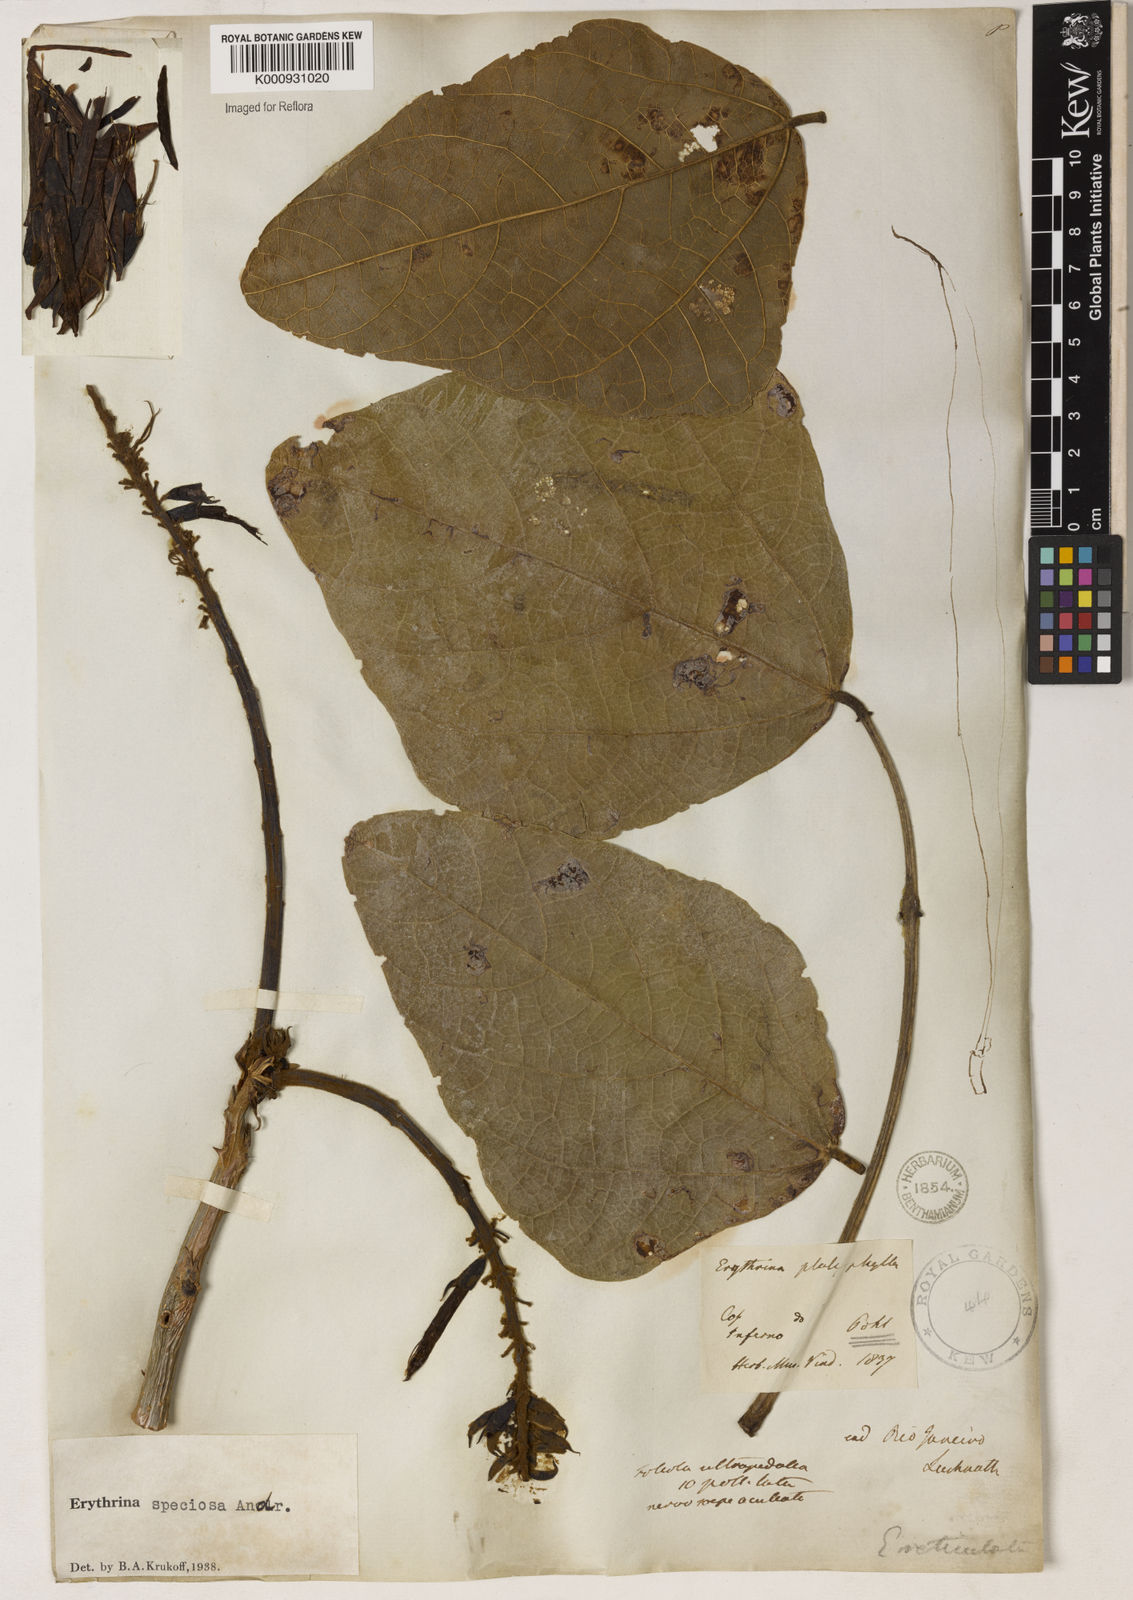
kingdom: Plantae
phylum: Tracheophyta
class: Magnoliopsida
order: Fabales
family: Fabaceae
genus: Erythrina
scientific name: Erythrina speciosa
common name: Coral tree
